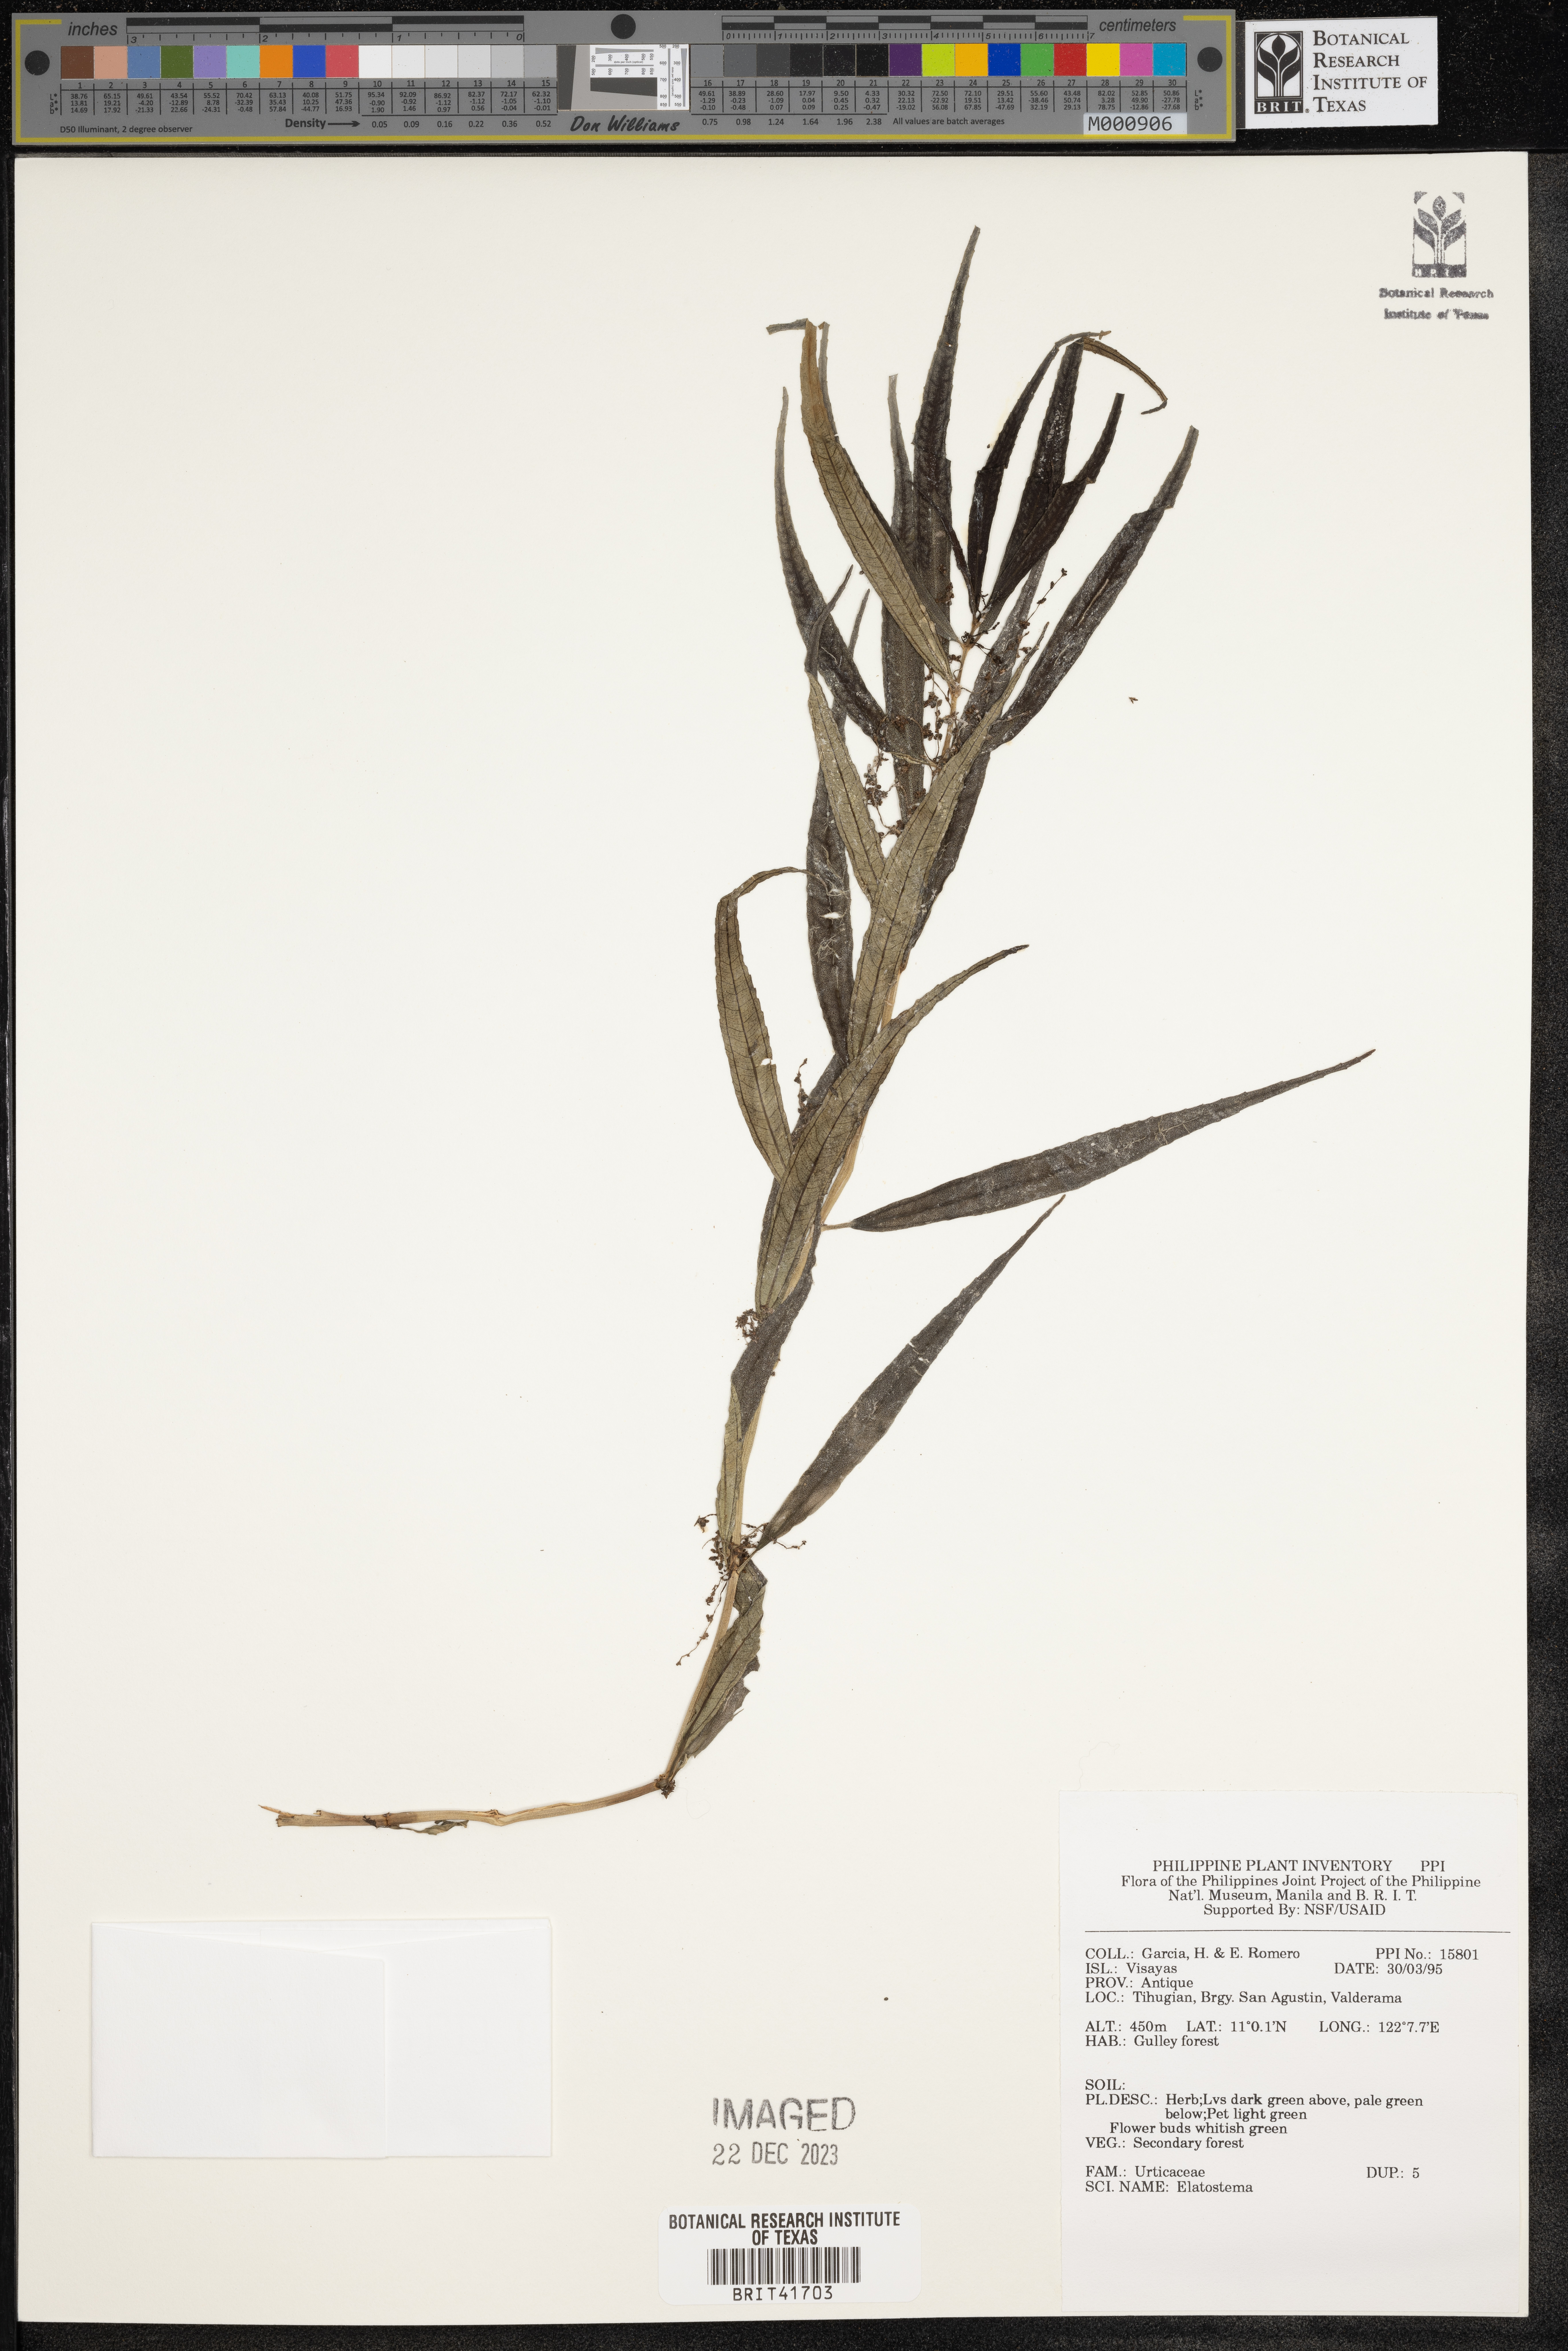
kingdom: Plantae
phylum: Tracheophyta
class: Magnoliopsida
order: Rosales
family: Urticaceae
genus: Elatostema
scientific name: Elatostema
